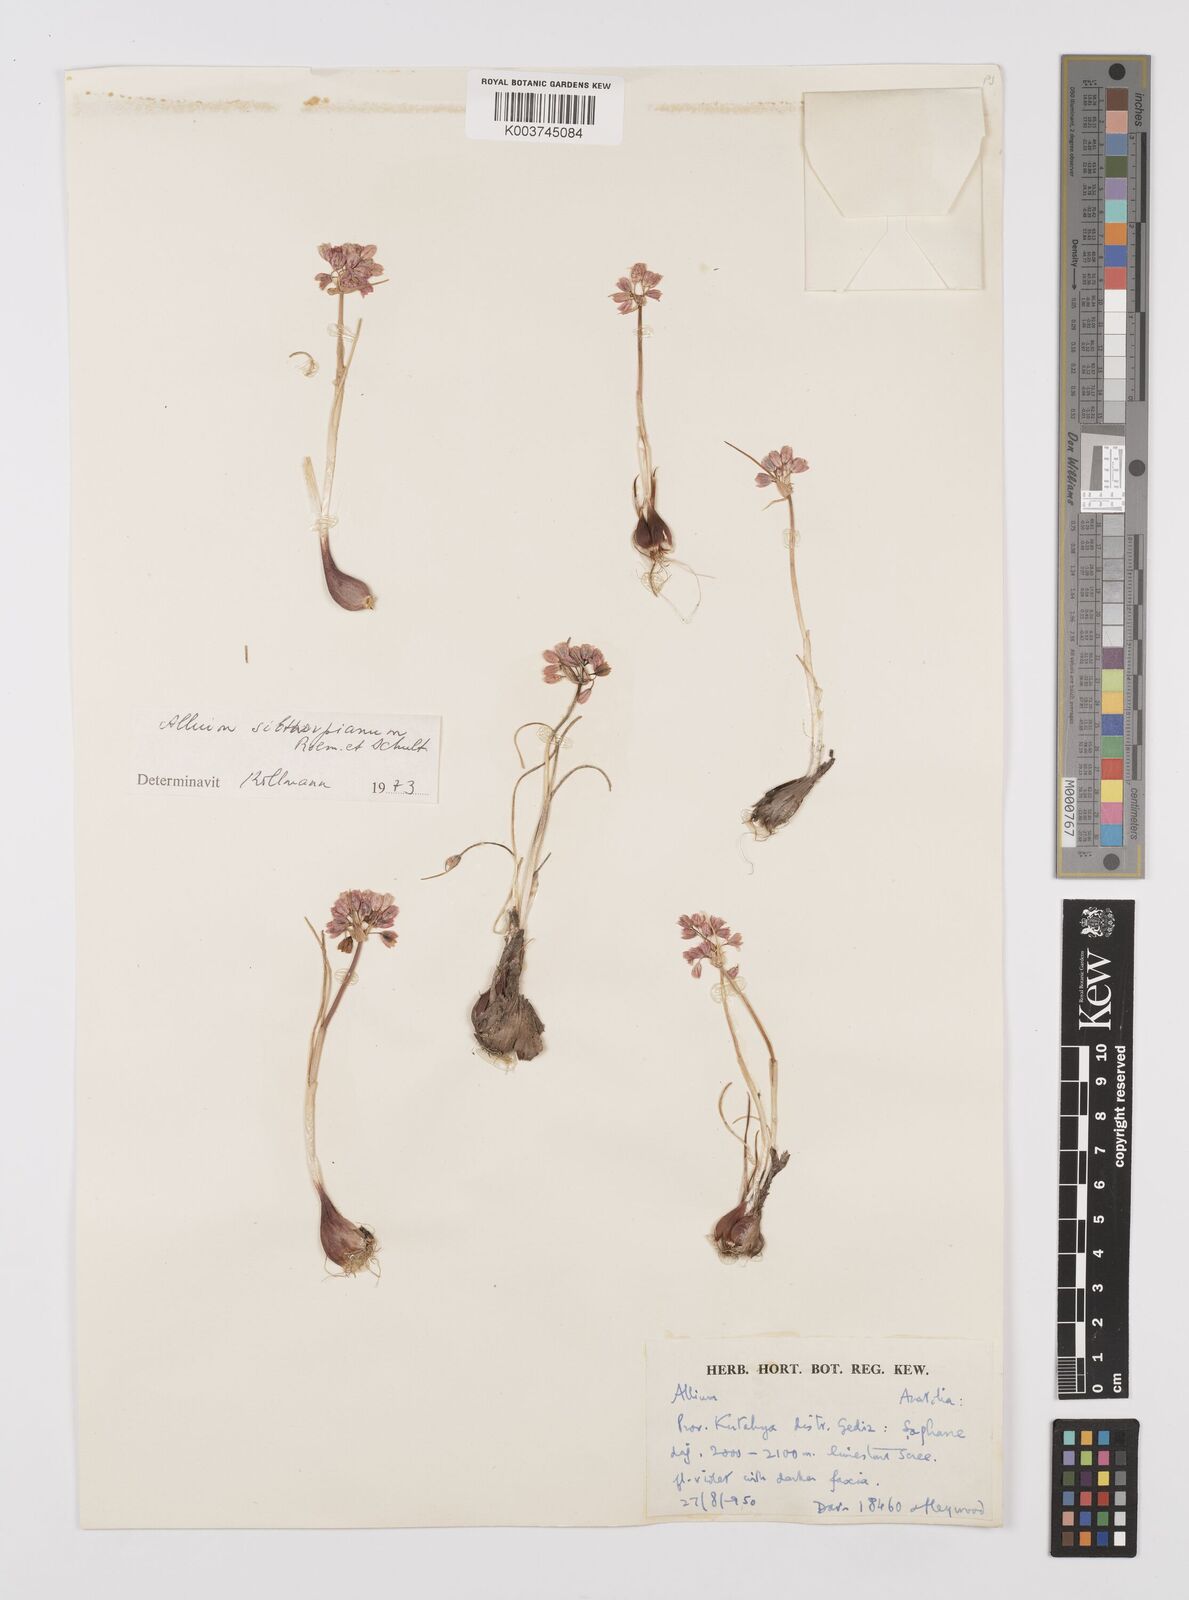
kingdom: Plantae
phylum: Tracheophyta
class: Liliopsida
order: Asparagales
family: Amaryllidaceae
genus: Allium
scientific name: Allium sibthorpianum
